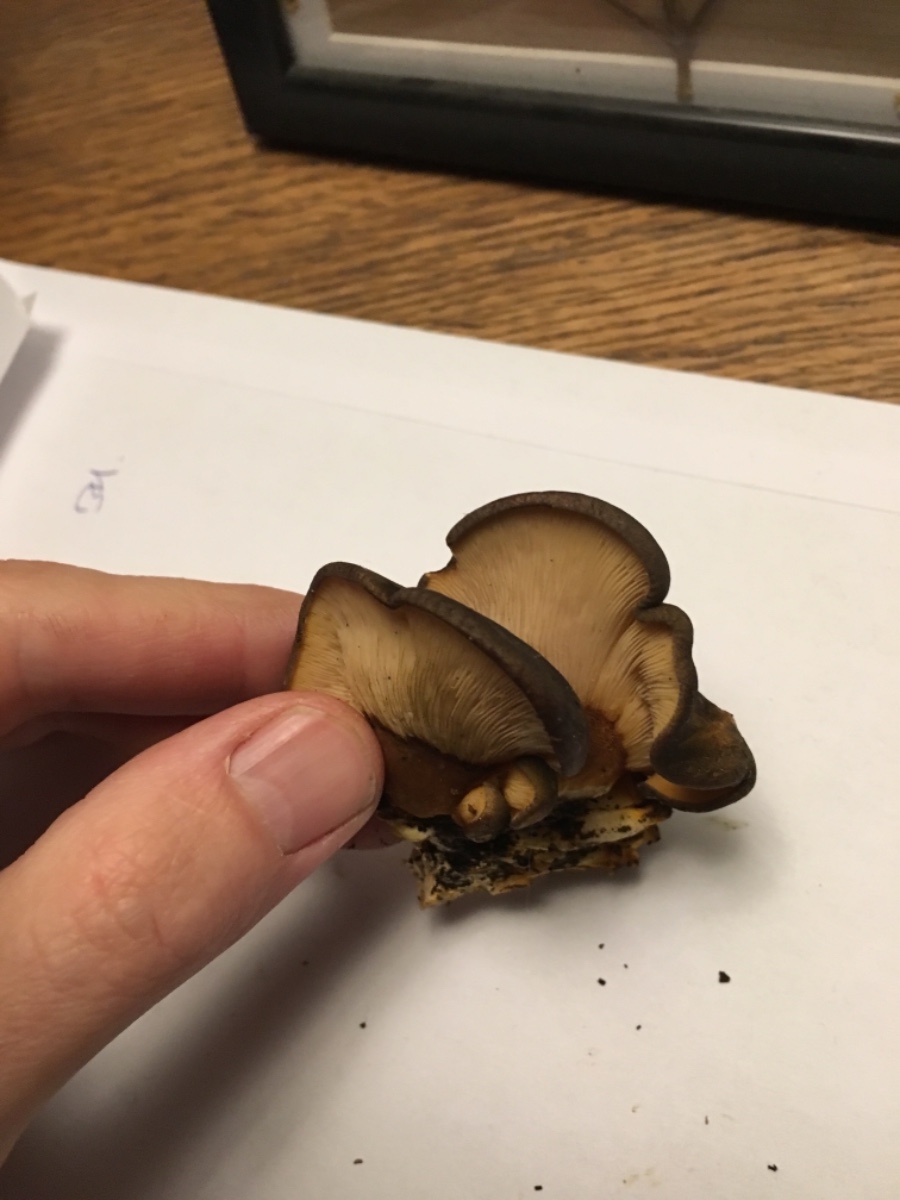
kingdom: Fungi
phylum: Basidiomycota
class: Agaricomycetes
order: Agaricales
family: Sarcomyxaceae
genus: Sarcomyxa
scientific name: Sarcomyxa serotina
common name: gummihat
